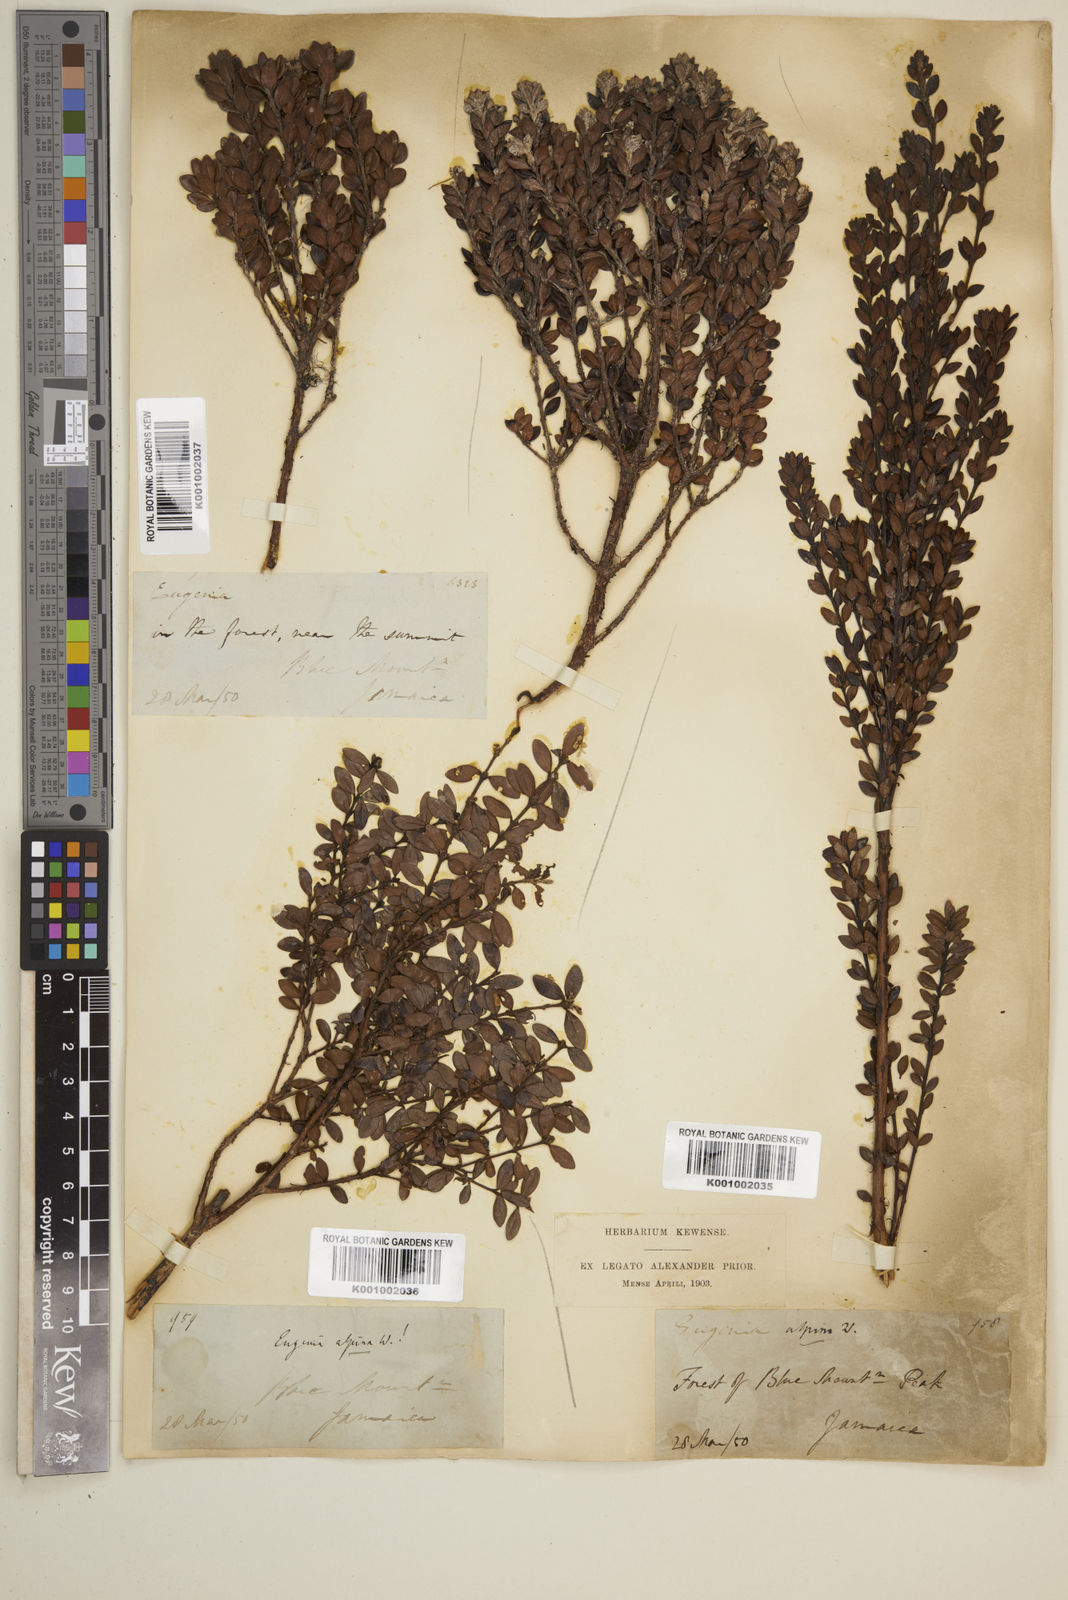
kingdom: Plantae
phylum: Tracheophyta
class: Magnoliopsida
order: Myrtales
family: Myrtaceae
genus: Eugenia
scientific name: Eugenia alpina
